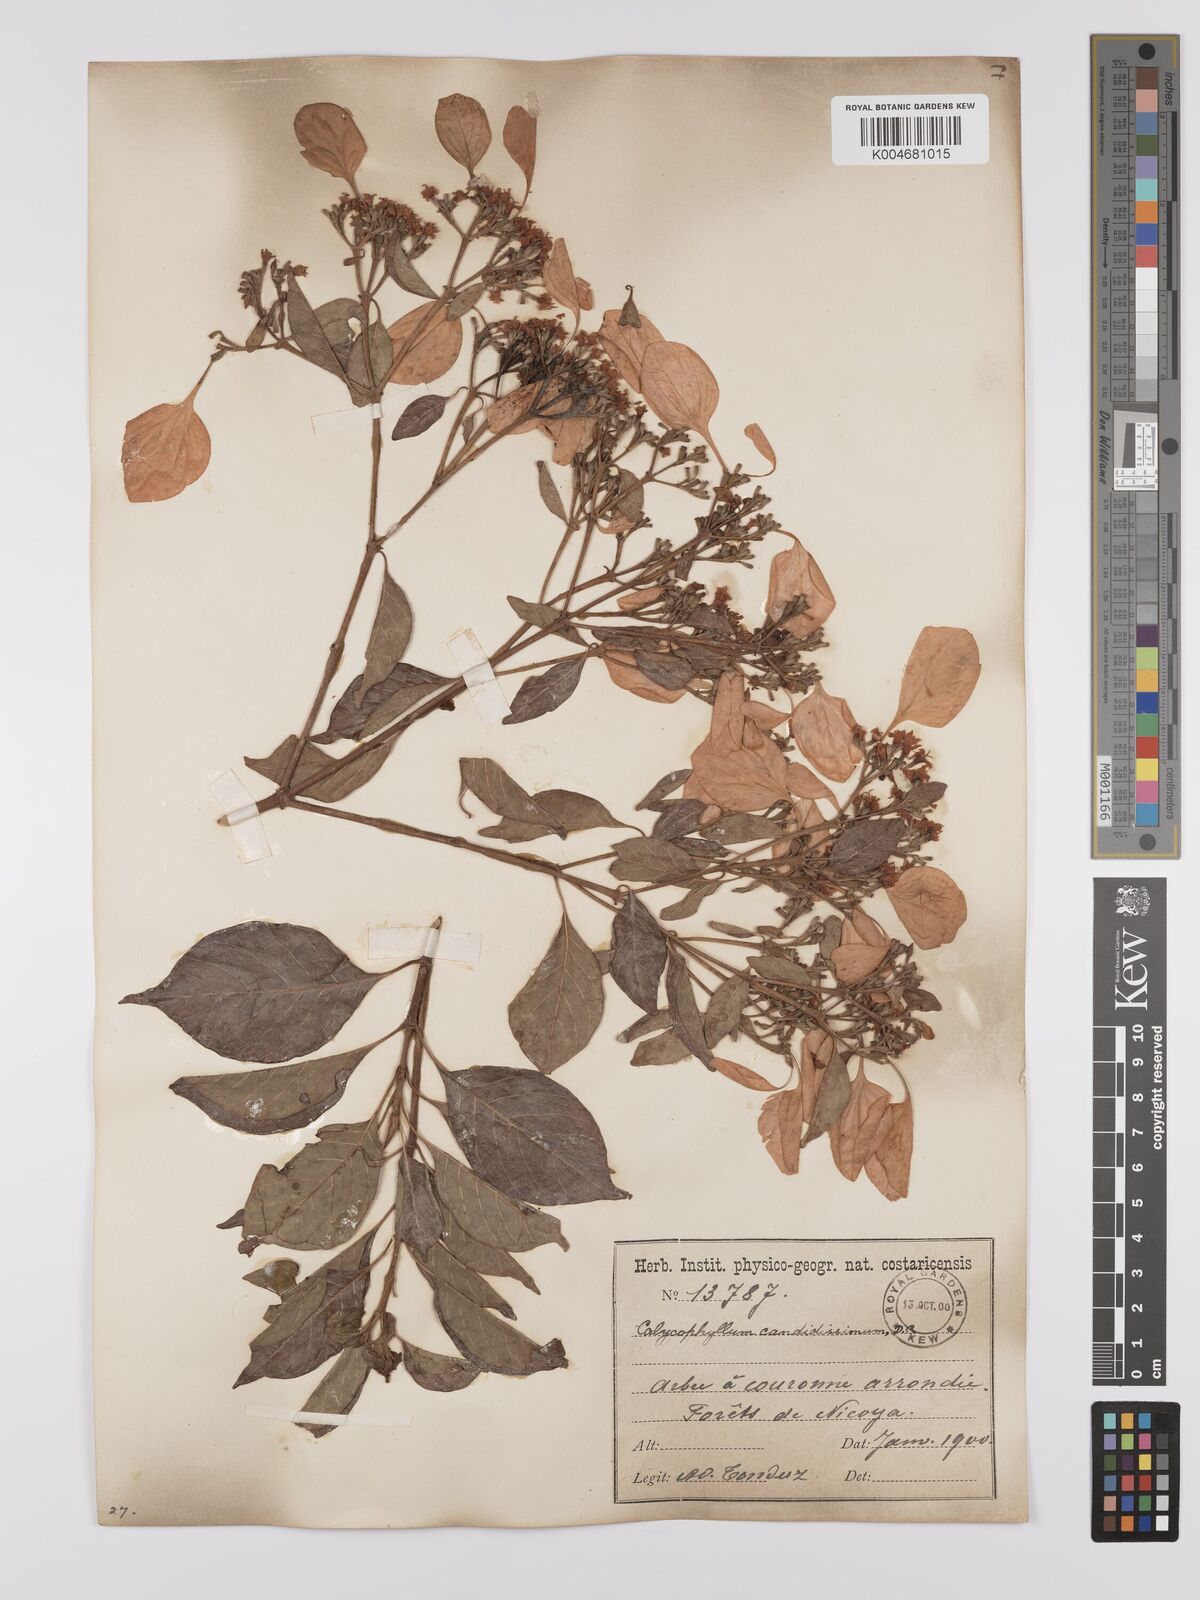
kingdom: Plantae
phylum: Tracheophyta
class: Magnoliopsida
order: Gentianales
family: Rubiaceae
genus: Calycophyllum
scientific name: Calycophyllum candidissimum
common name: Dagame
